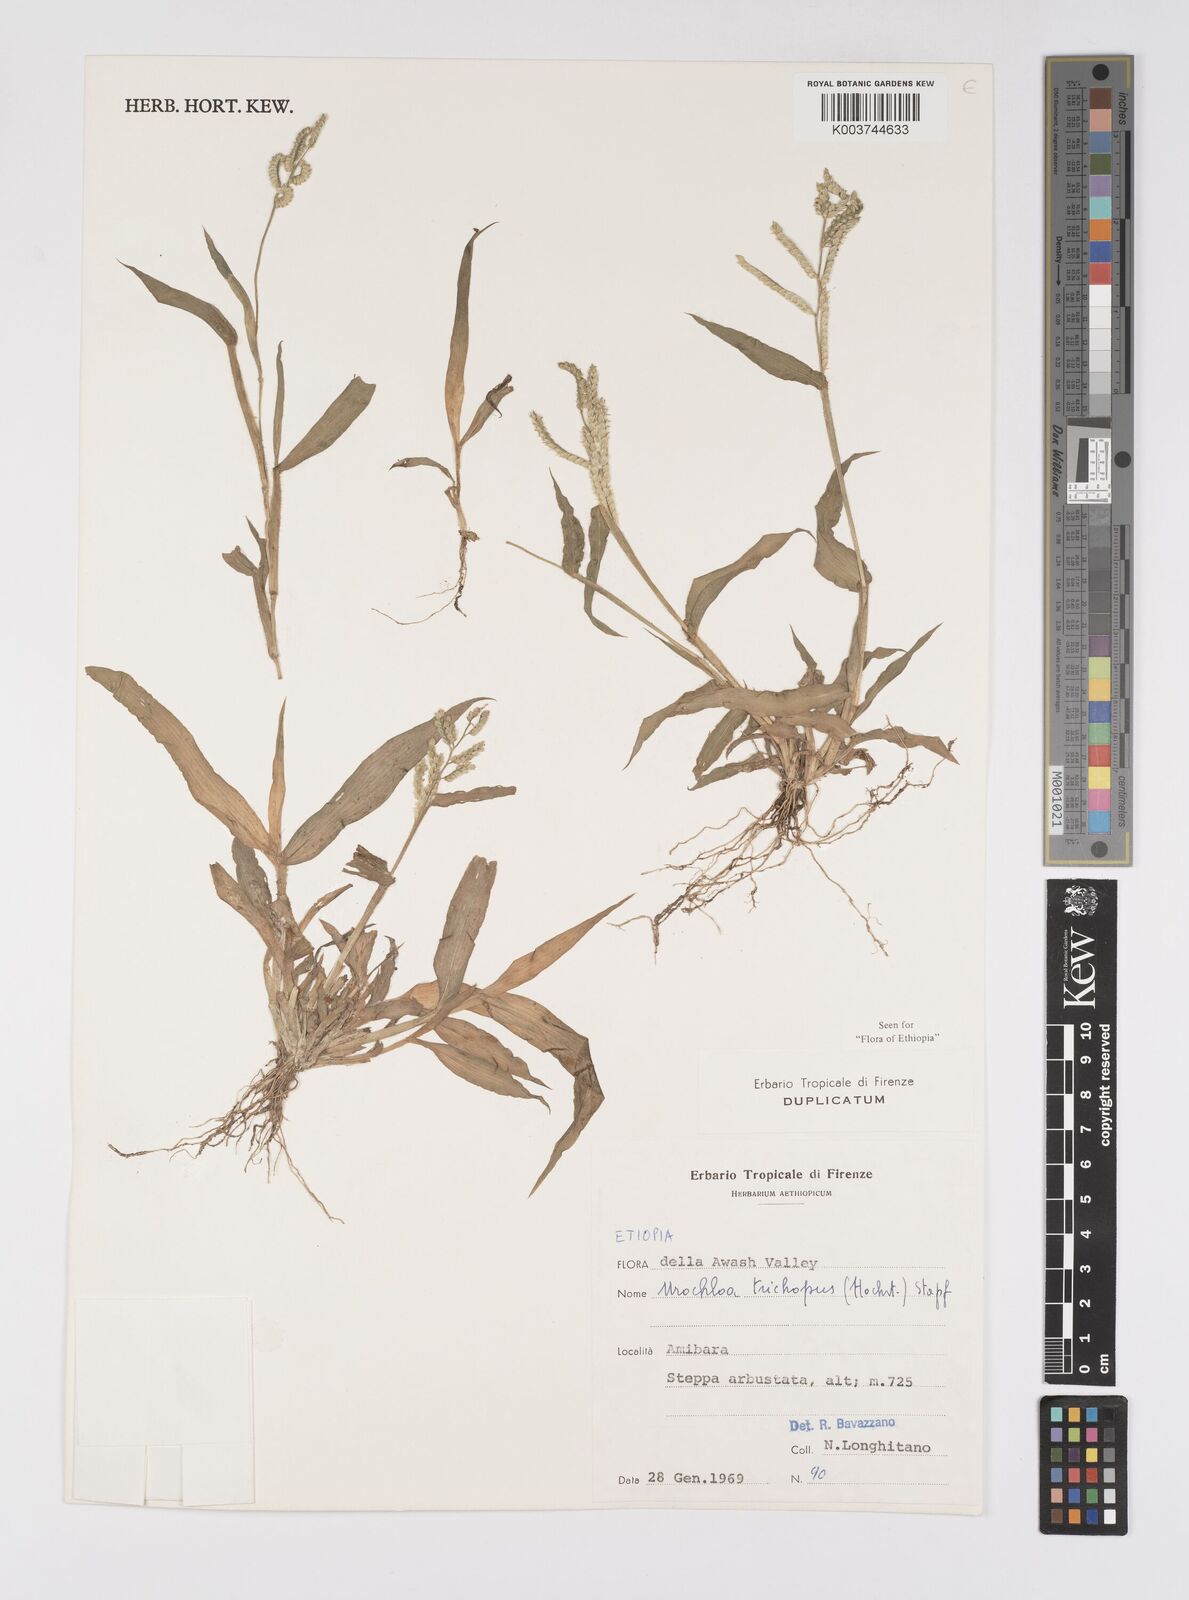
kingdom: Plantae
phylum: Tracheophyta
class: Liliopsida
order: Poales
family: Poaceae
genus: Urochloa
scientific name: Urochloa trichopus
